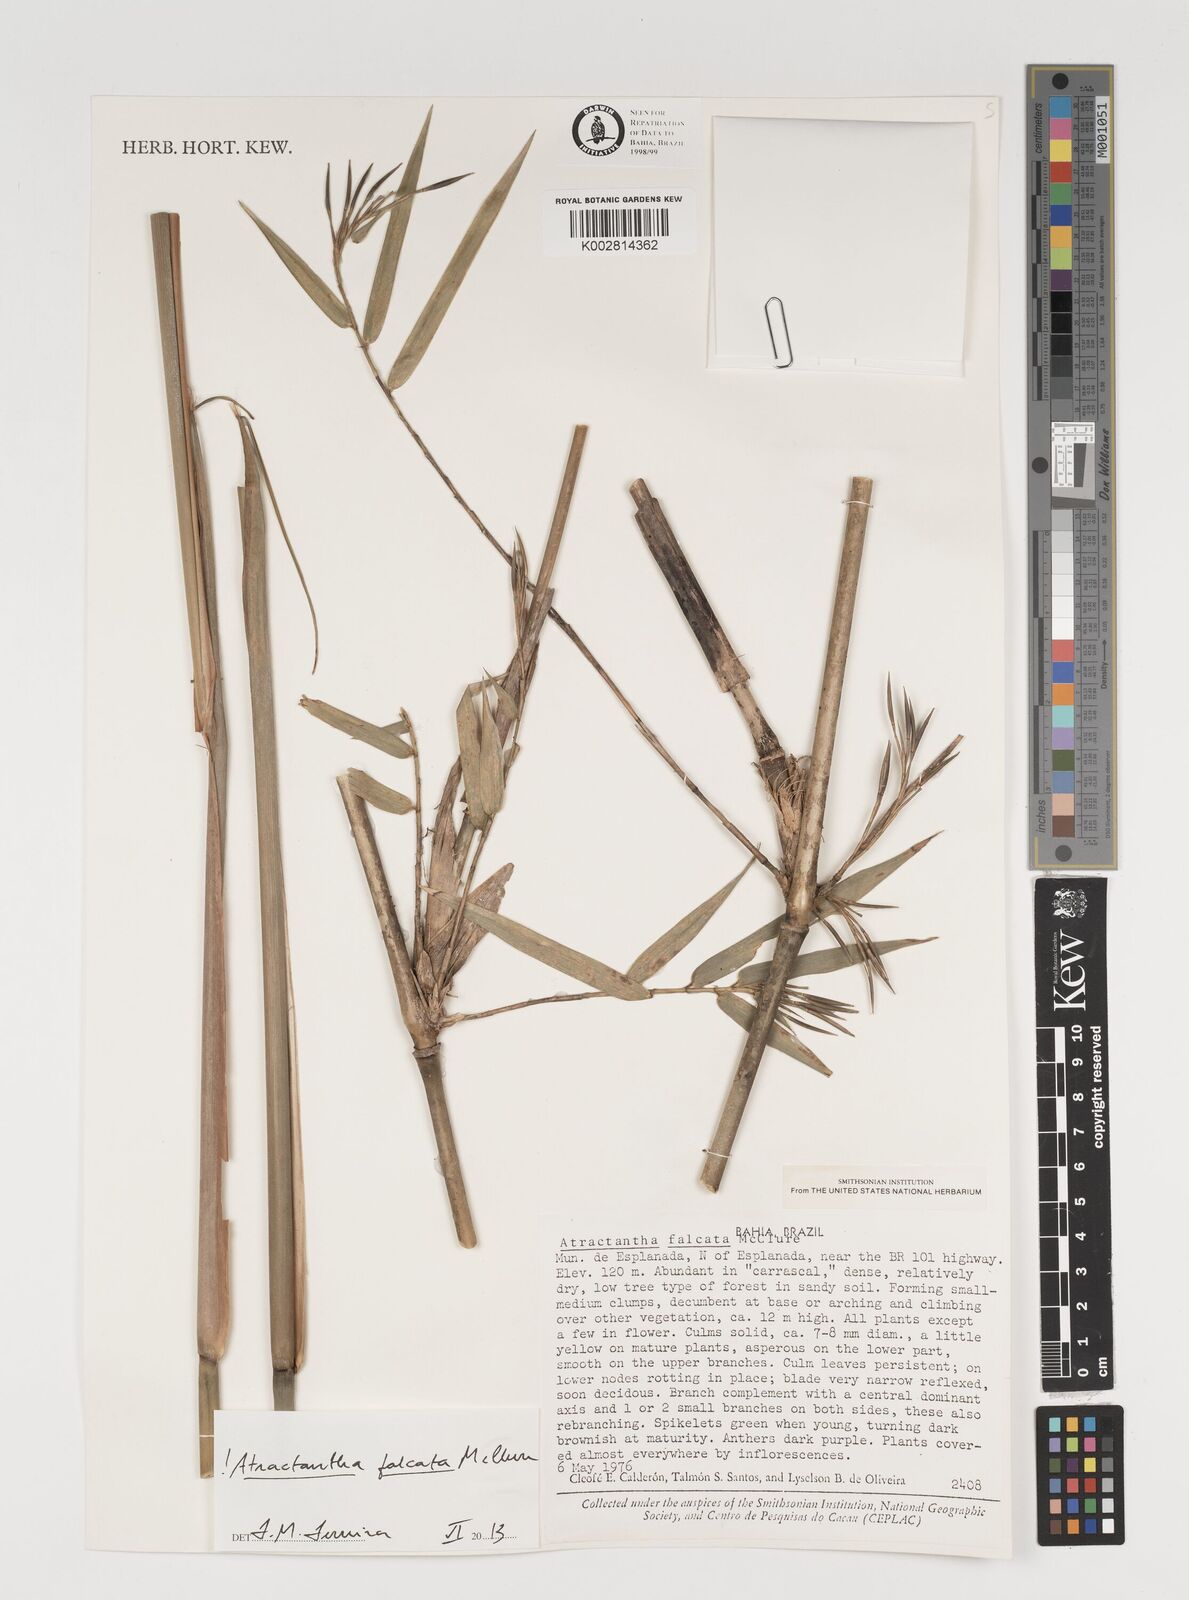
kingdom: Plantae
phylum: Tracheophyta
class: Liliopsida
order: Poales
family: Poaceae
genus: Atractantha
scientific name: Atractantha falcata
